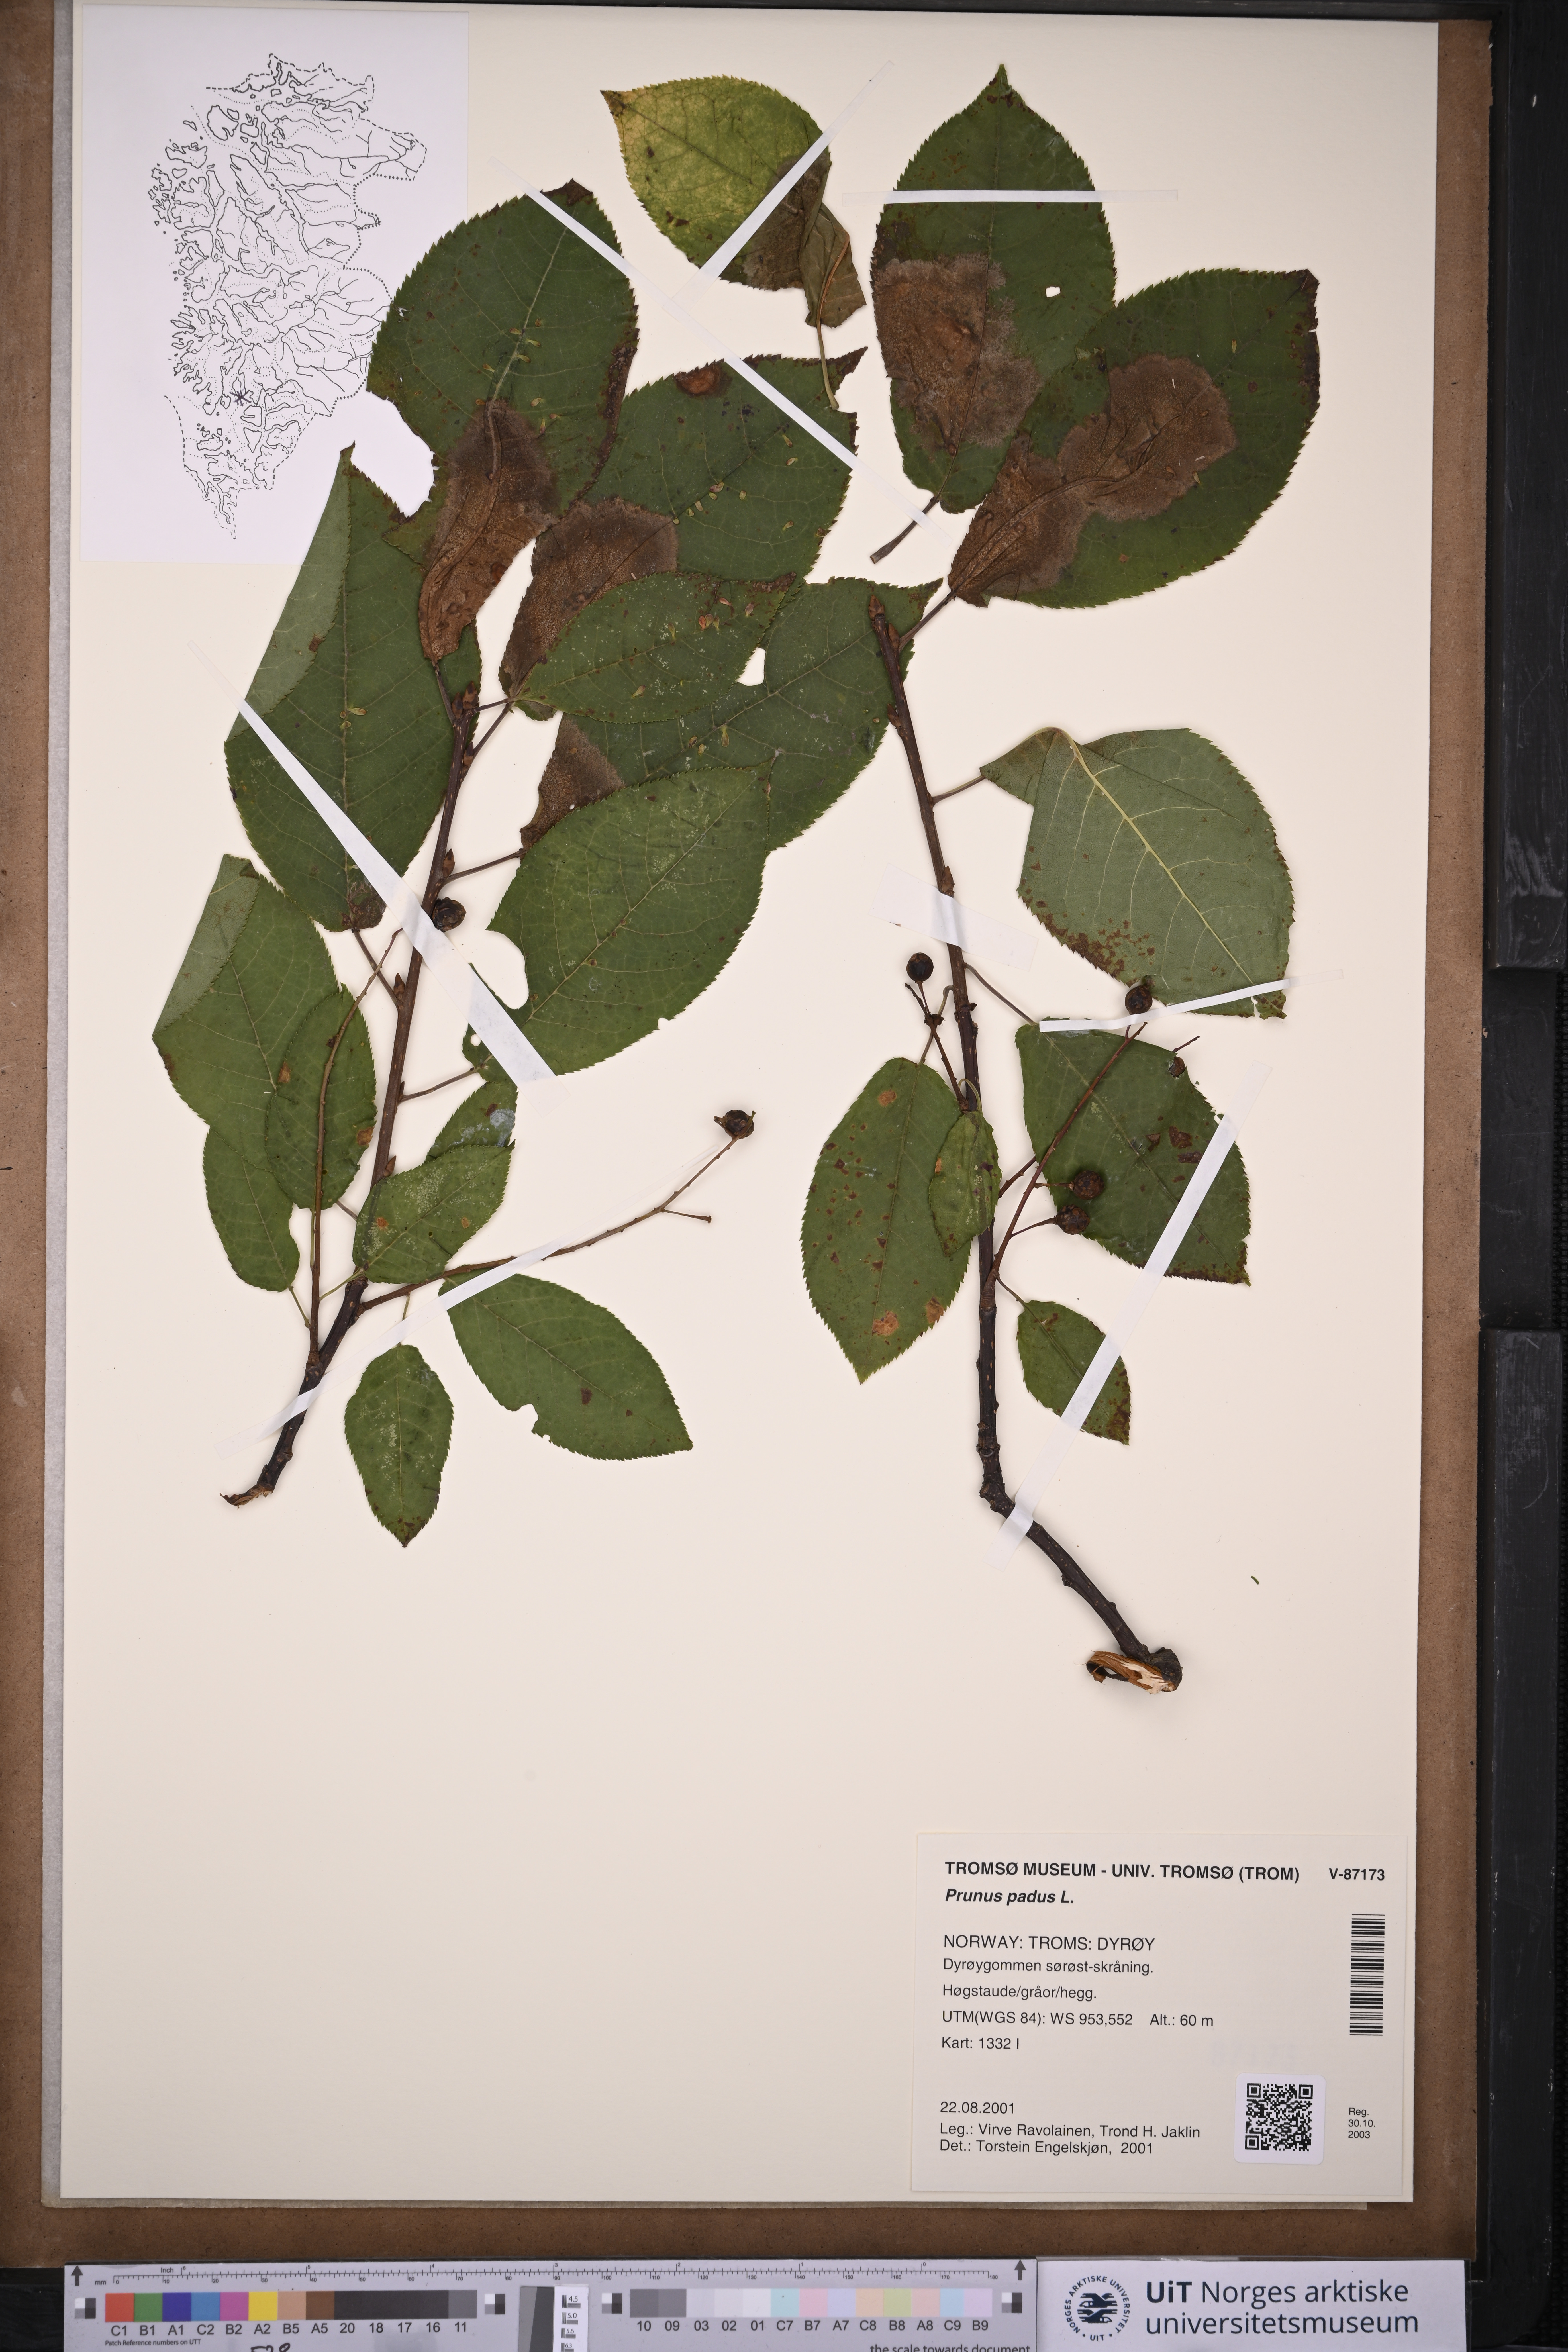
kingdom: Plantae
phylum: Tracheophyta
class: Magnoliopsida
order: Rosales
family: Rosaceae
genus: Prunus
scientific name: Prunus padus
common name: Bird cherry
